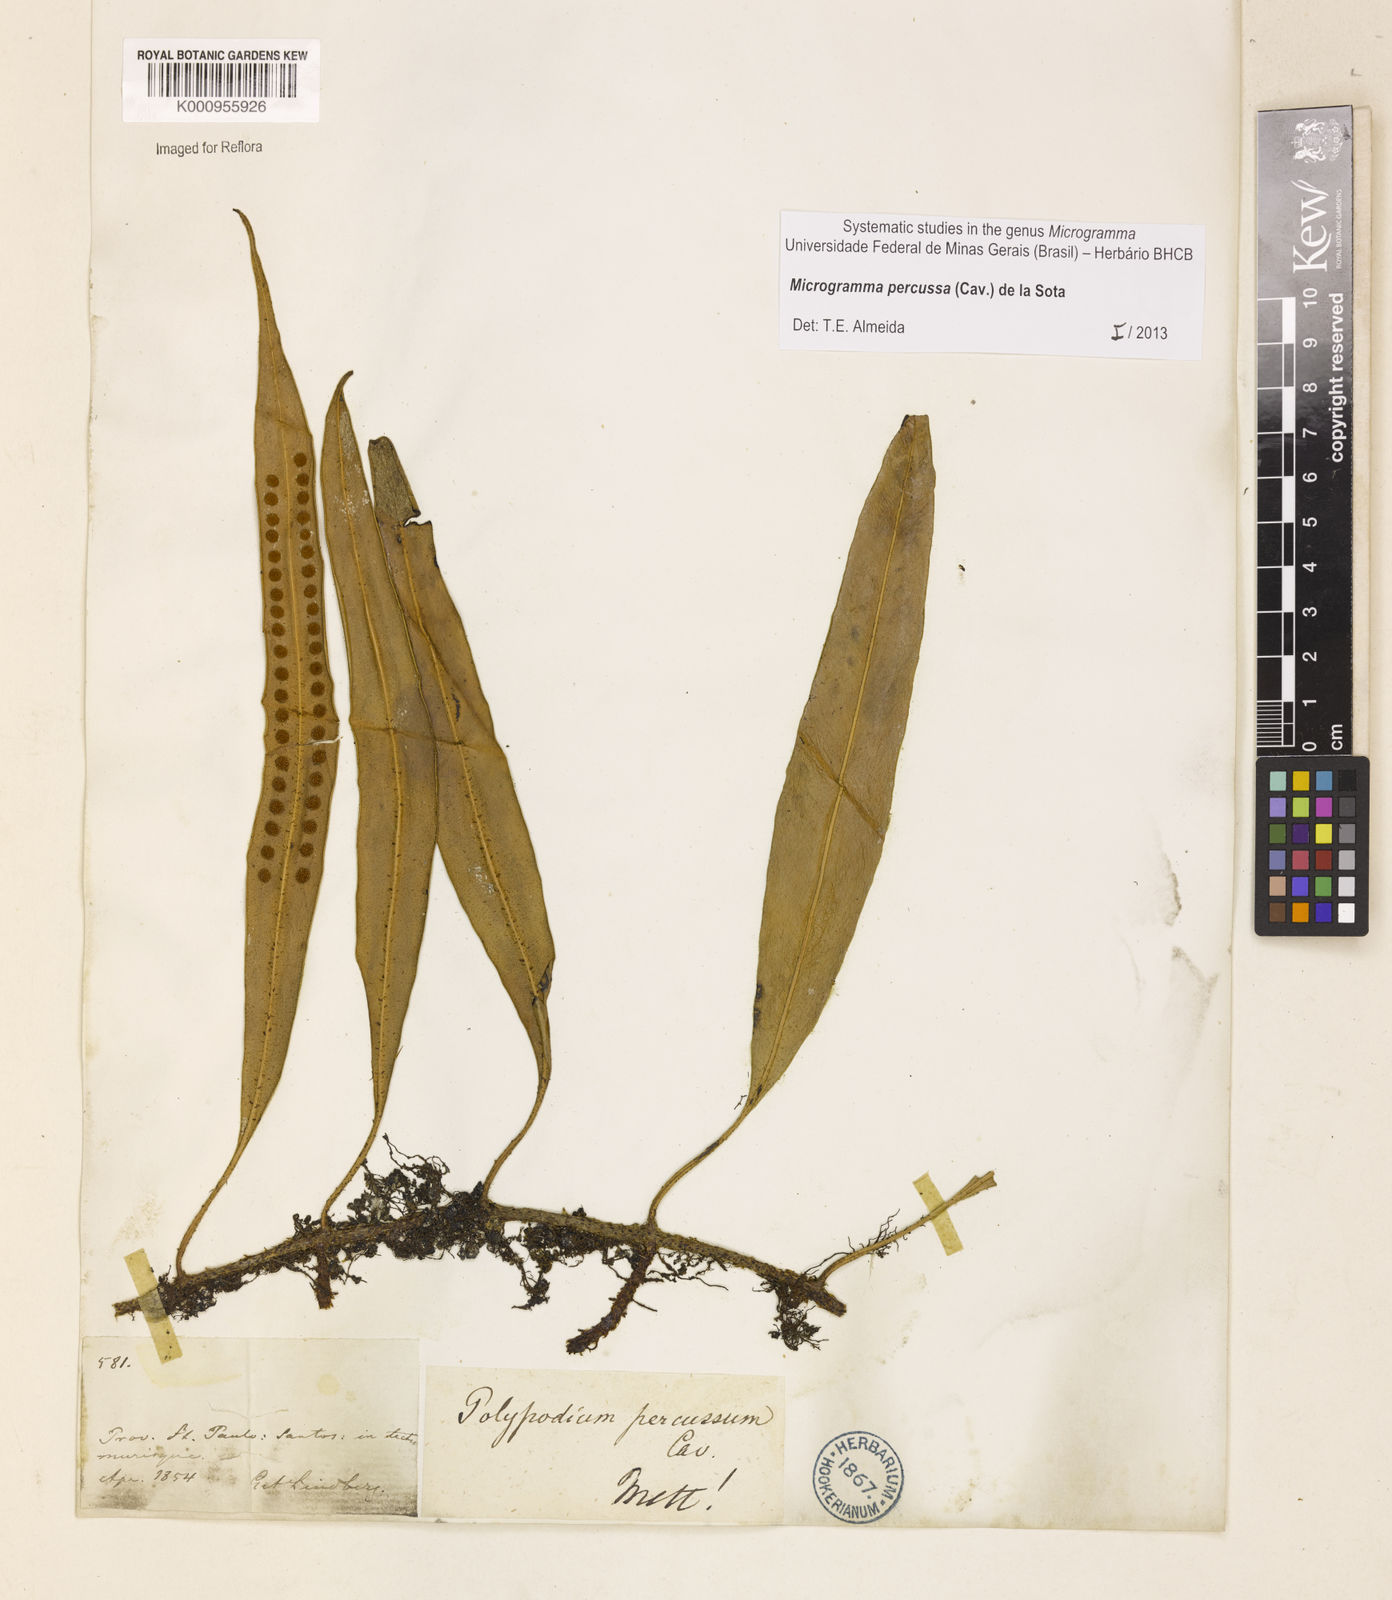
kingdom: Plantae
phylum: Tracheophyta
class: Polypodiopsida
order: Polypodiales
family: Polypodiaceae
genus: Microgramma
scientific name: Microgramma percussa
